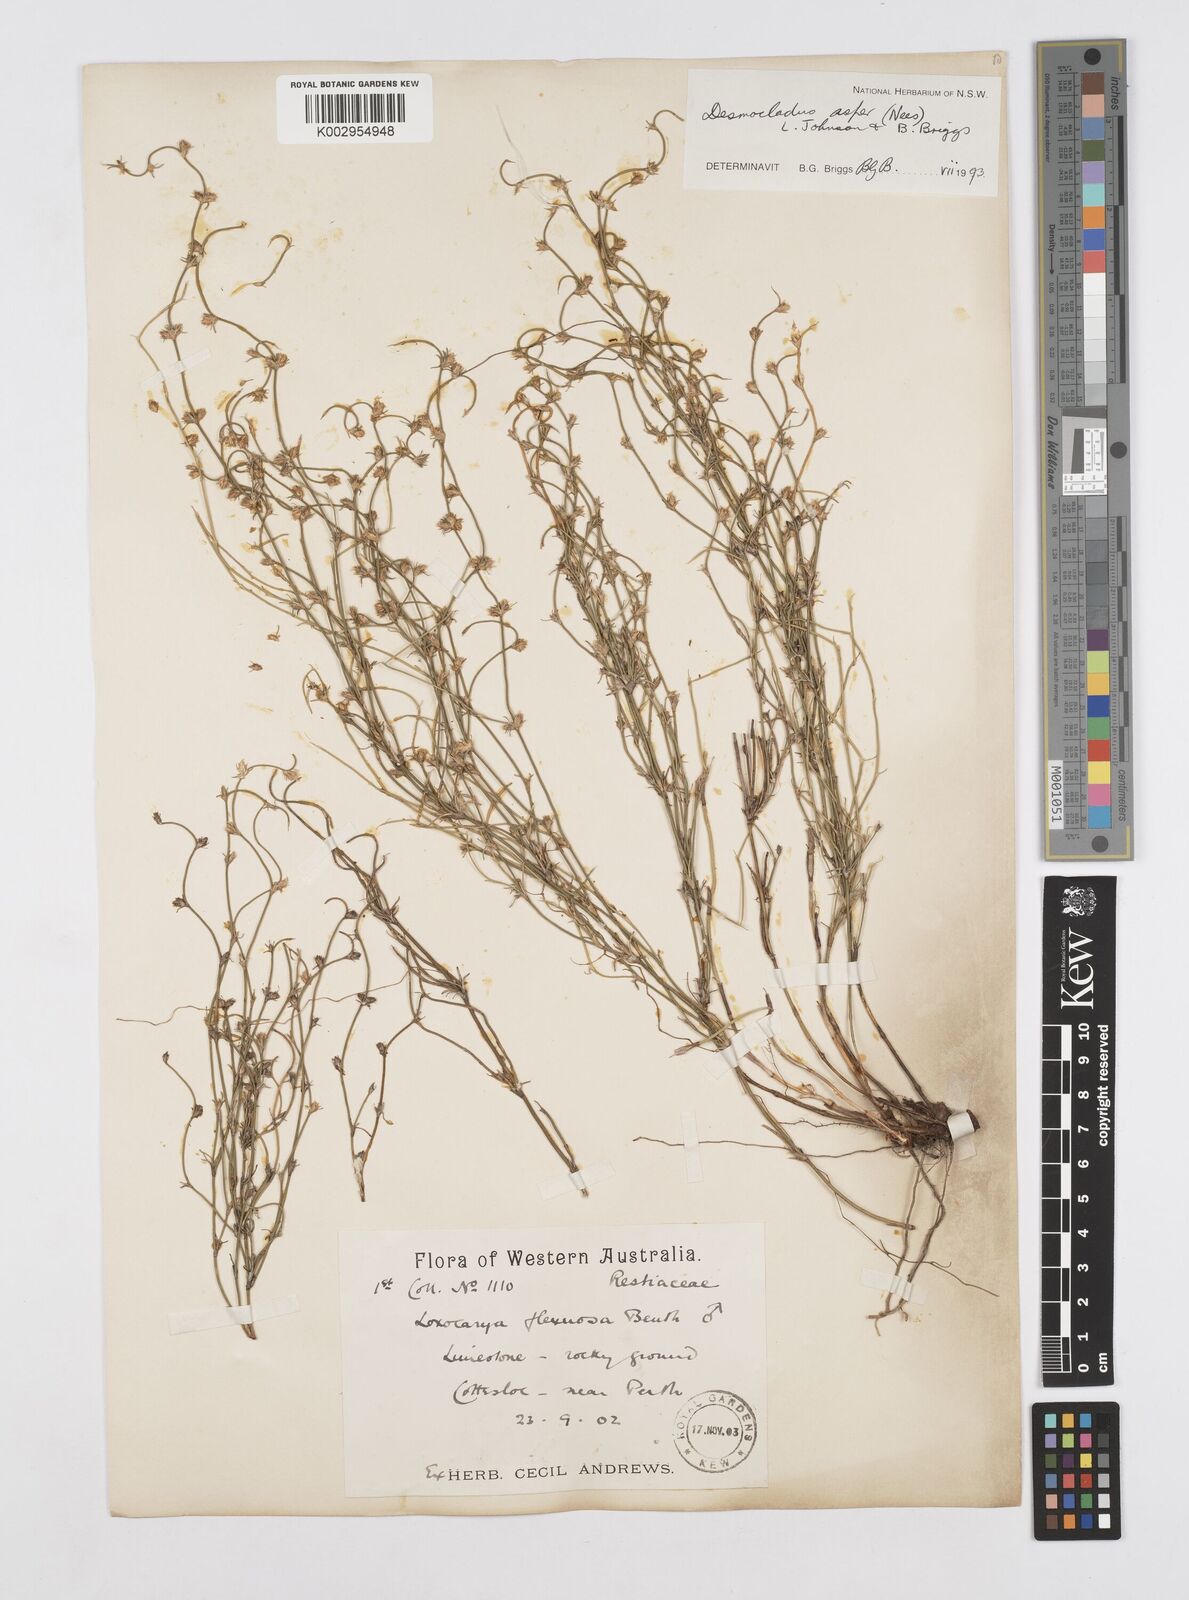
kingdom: Plantae
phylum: Tracheophyta
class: Liliopsida
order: Poales
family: Restionaceae
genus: Desmocladus
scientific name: Desmocladus asper
